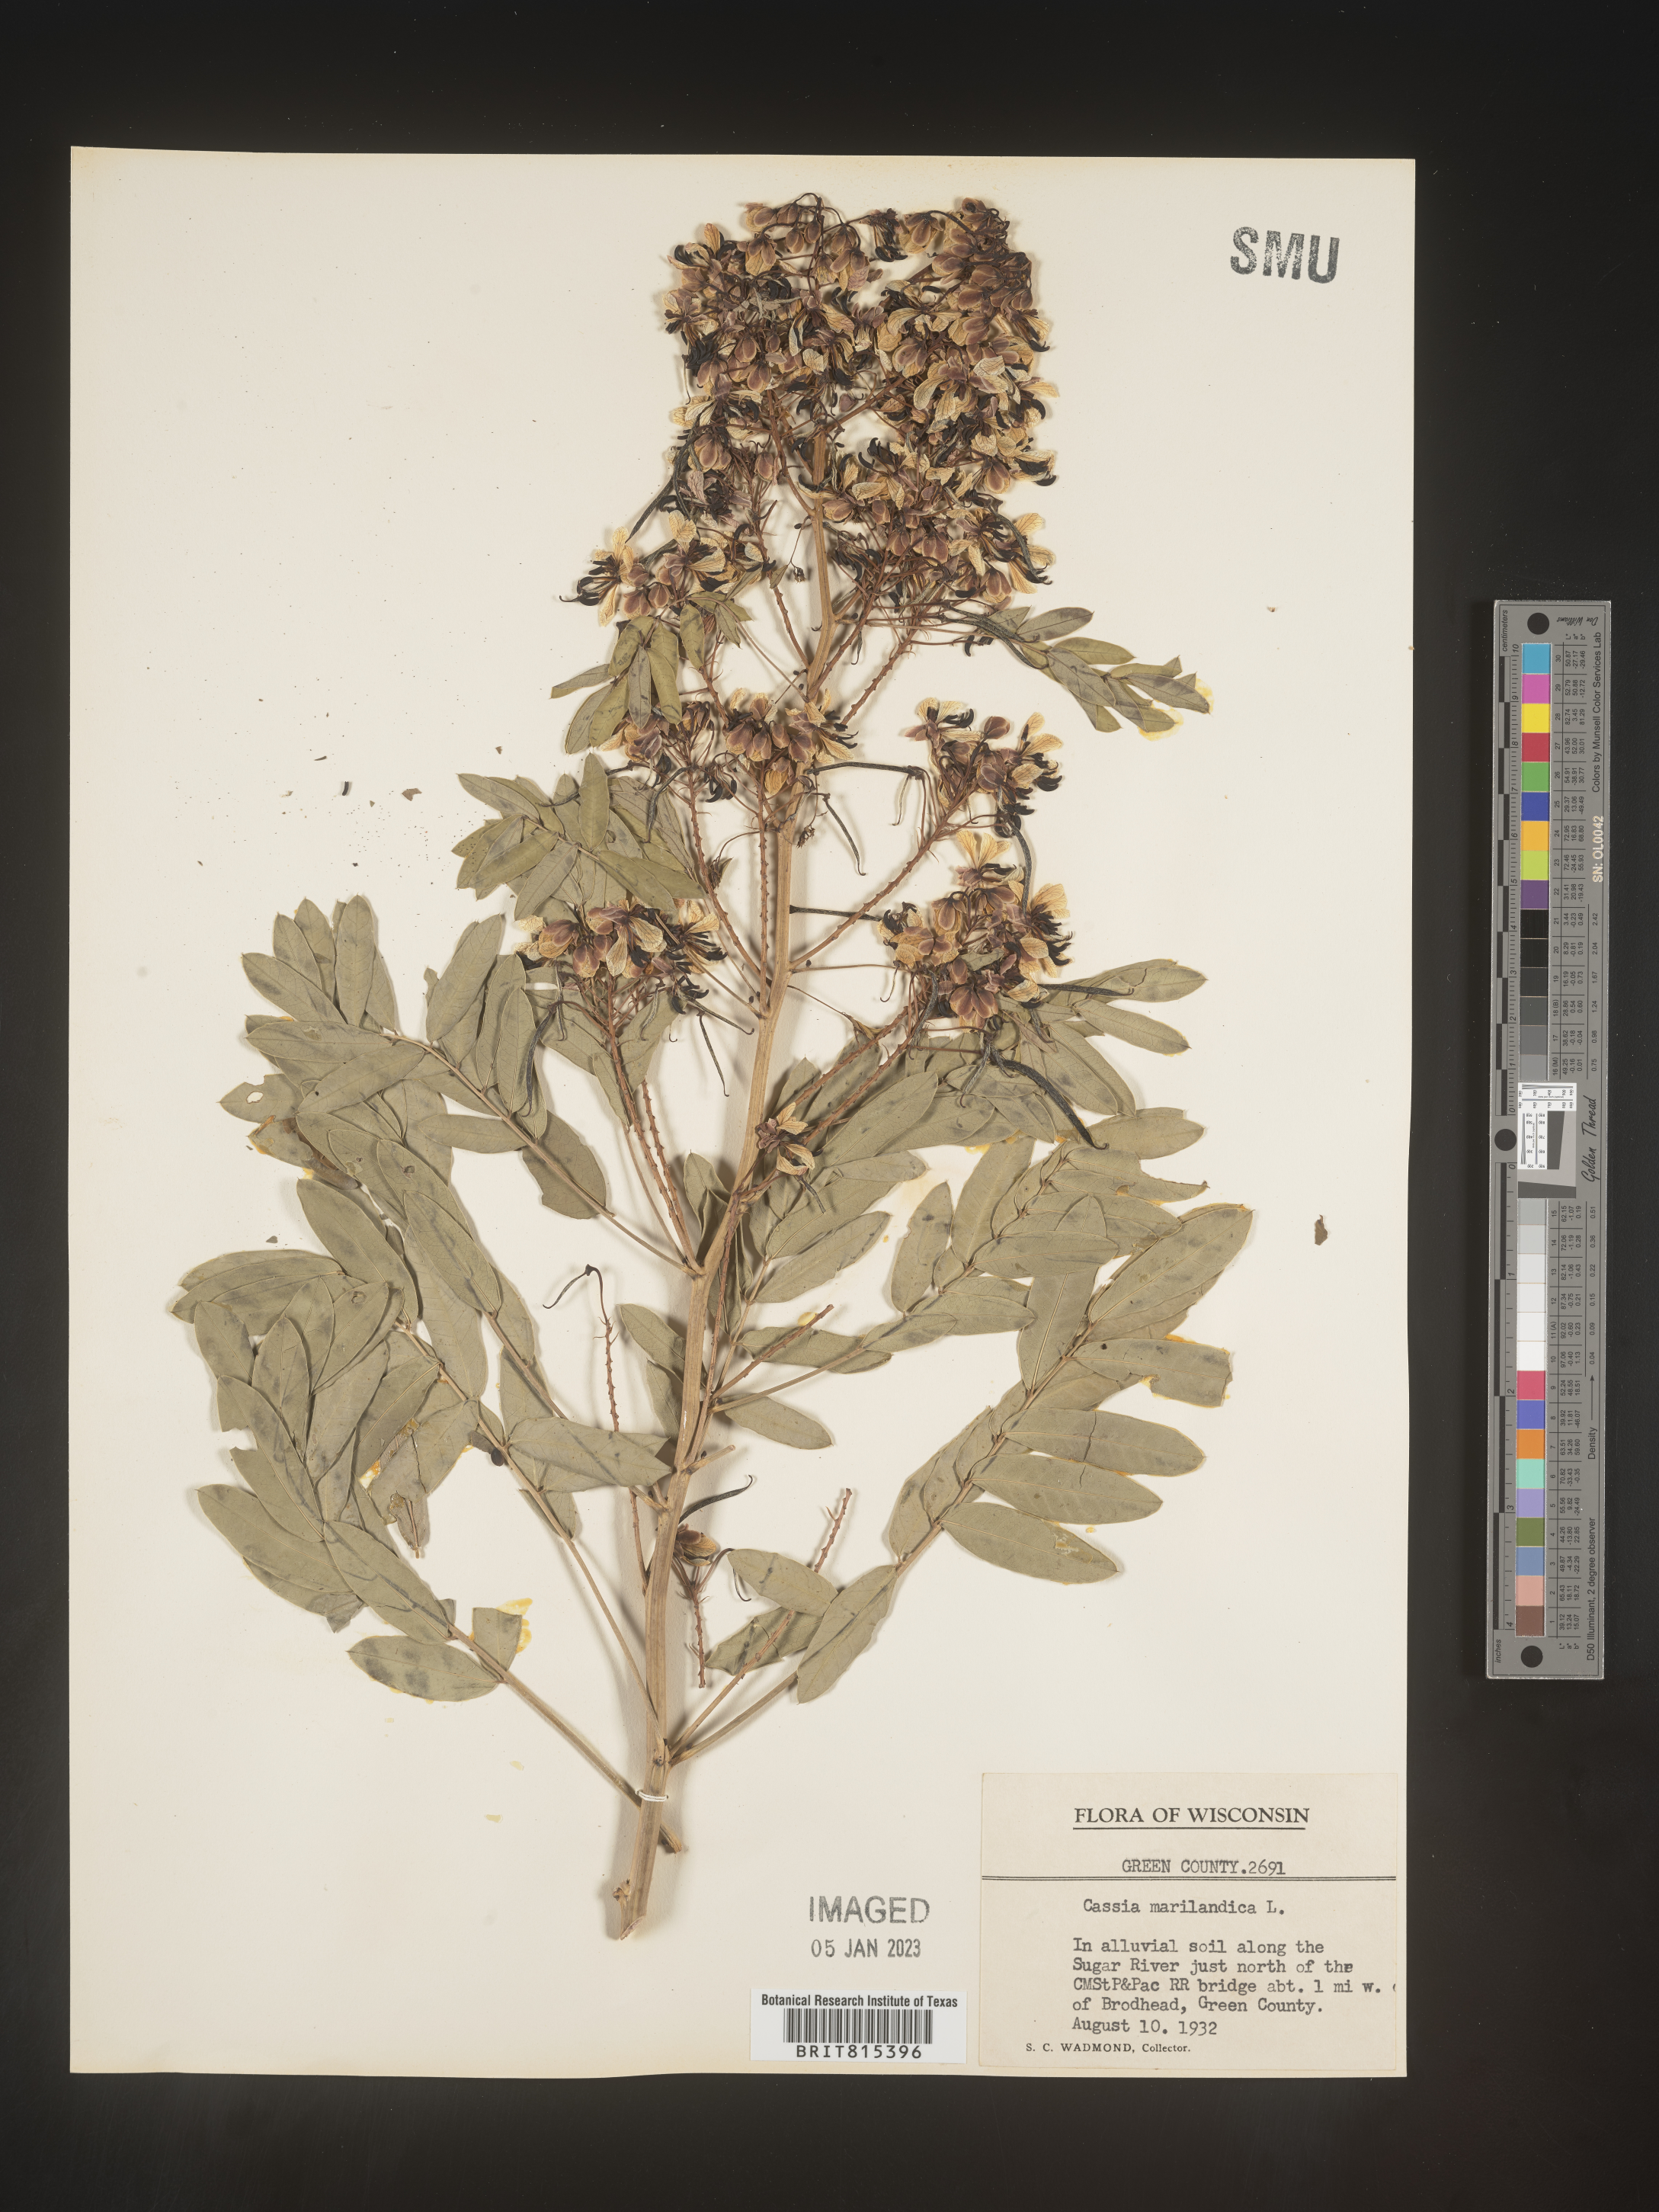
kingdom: Plantae
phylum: Tracheophyta
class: Magnoliopsida
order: Fabales
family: Fabaceae
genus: Senna
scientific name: Senna marilandica
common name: American senna
